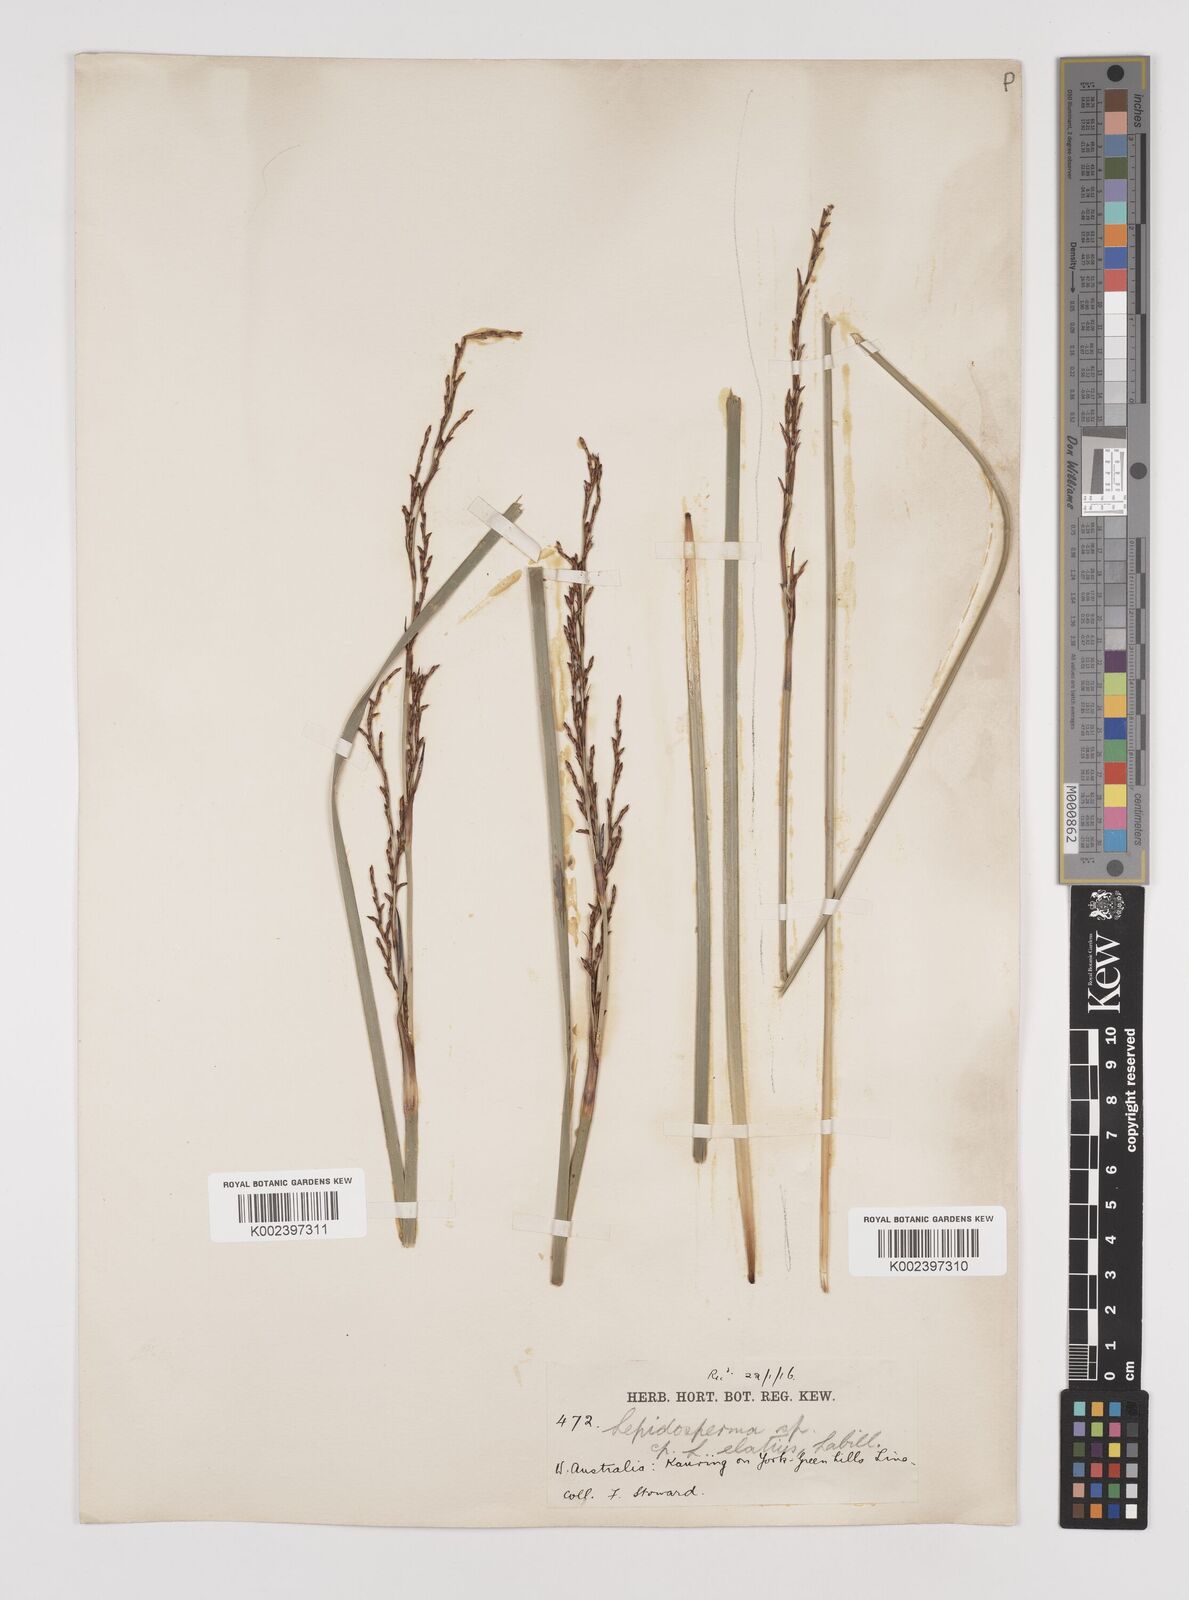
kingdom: Plantae
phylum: Tracheophyta
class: Liliopsida
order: Poales
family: Cyperaceae
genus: Lepidosperma
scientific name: Lepidosperma
